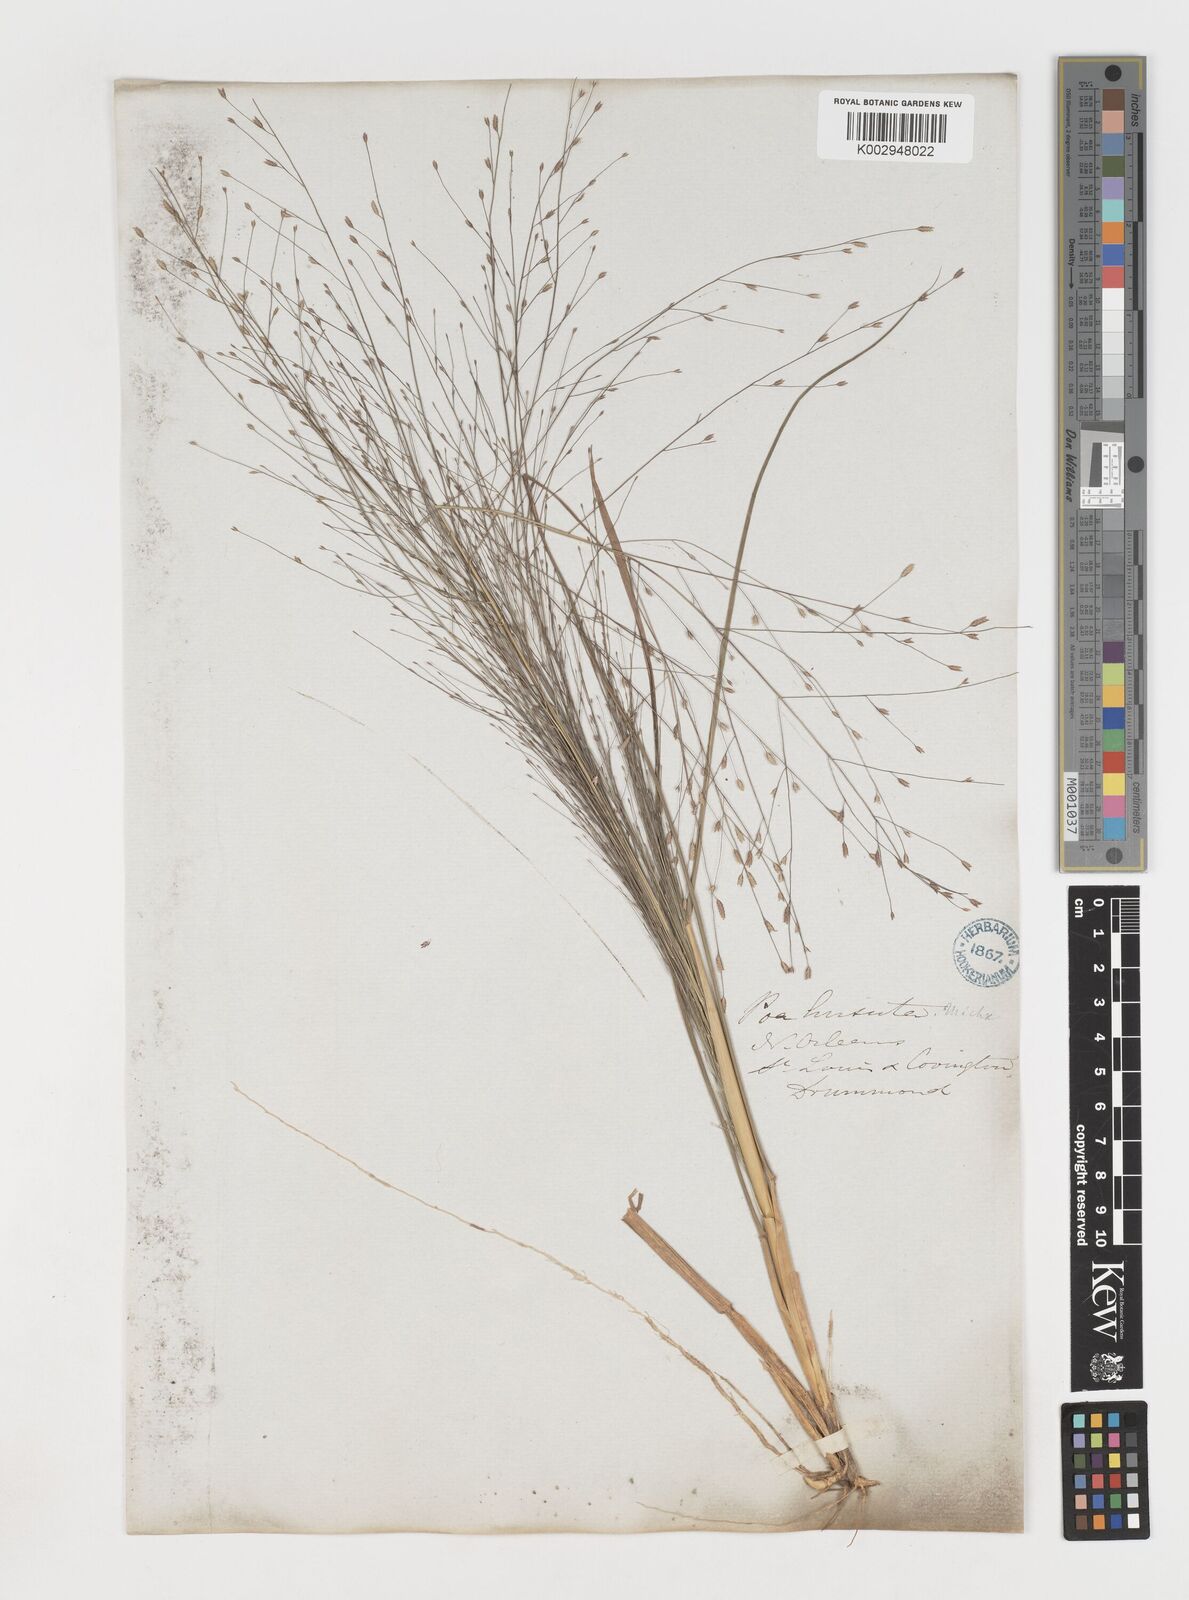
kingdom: Plantae
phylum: Tracheophyta
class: Liliopsida
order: Poales
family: Poaceae
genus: Eragrostis
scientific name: Eragrostis spectabilis
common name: Petticoat-climber
